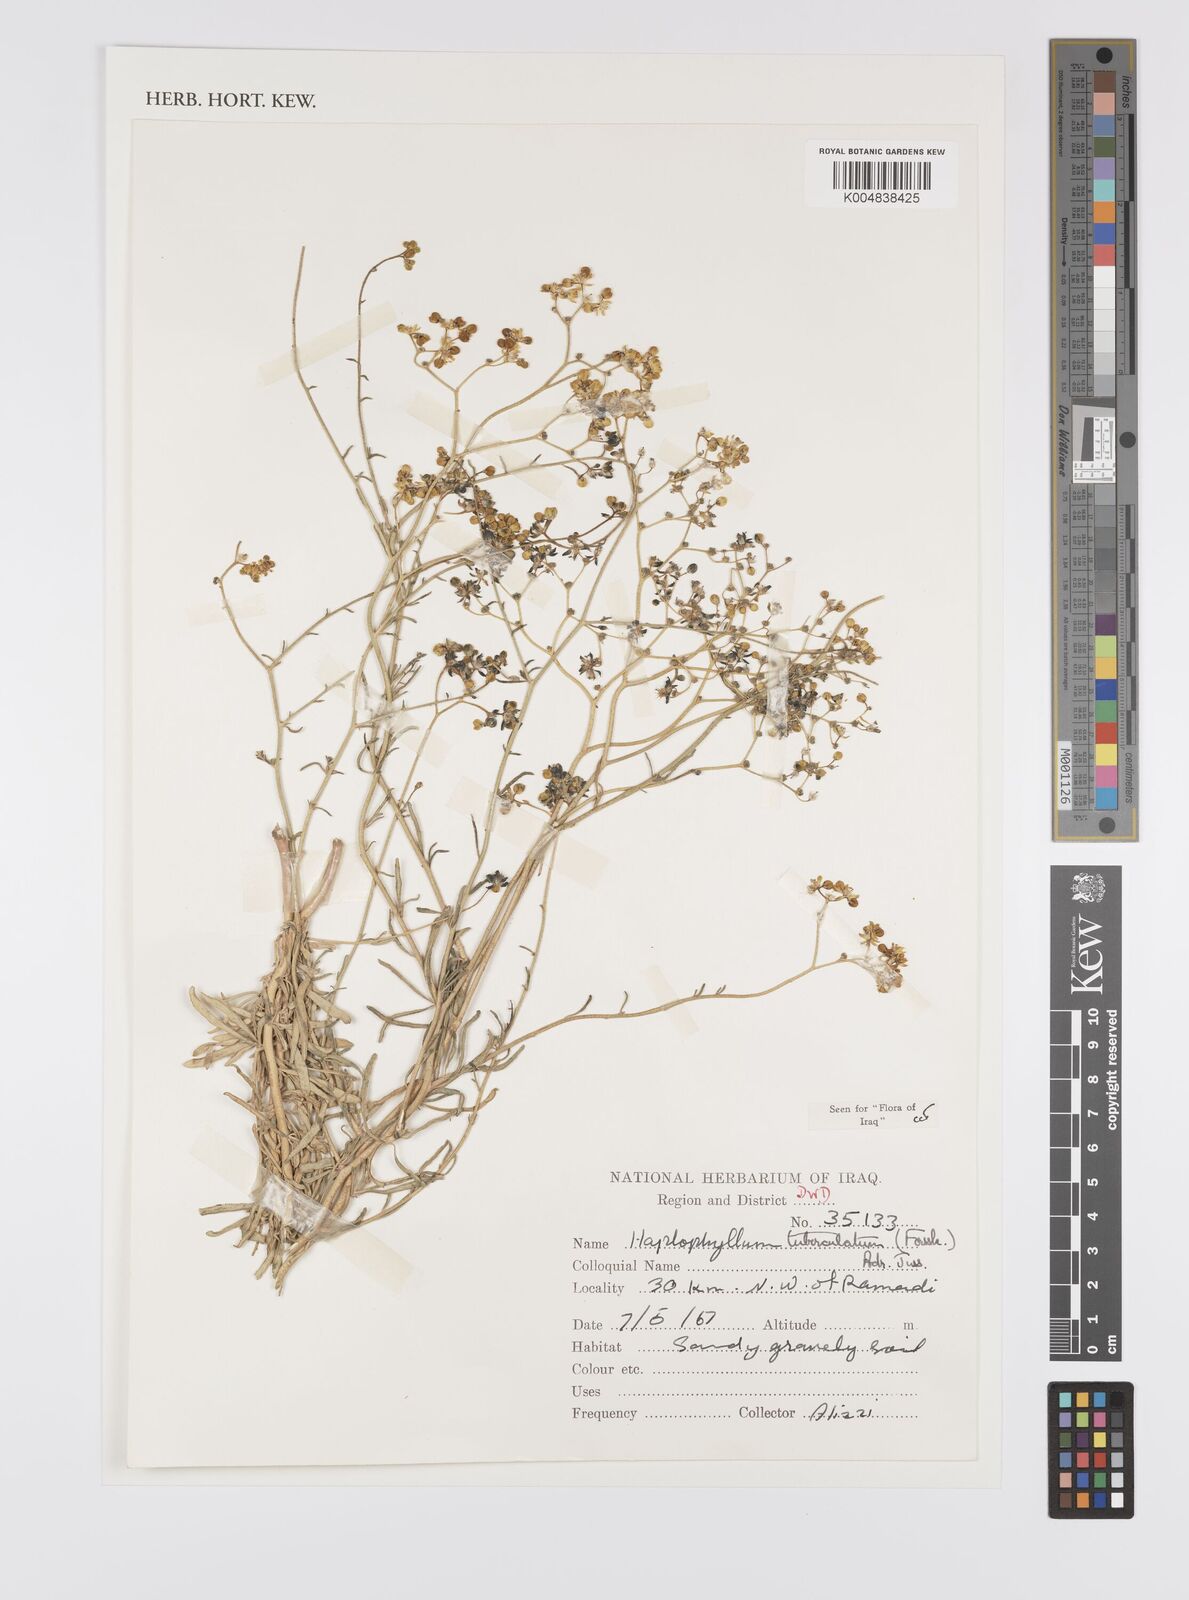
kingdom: Plantae
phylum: Tracheophyta
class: Magnoliopsida
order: Sapindales
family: Rutaceae
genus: Haplophyllum
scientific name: Haplophyllum tuberculatum
